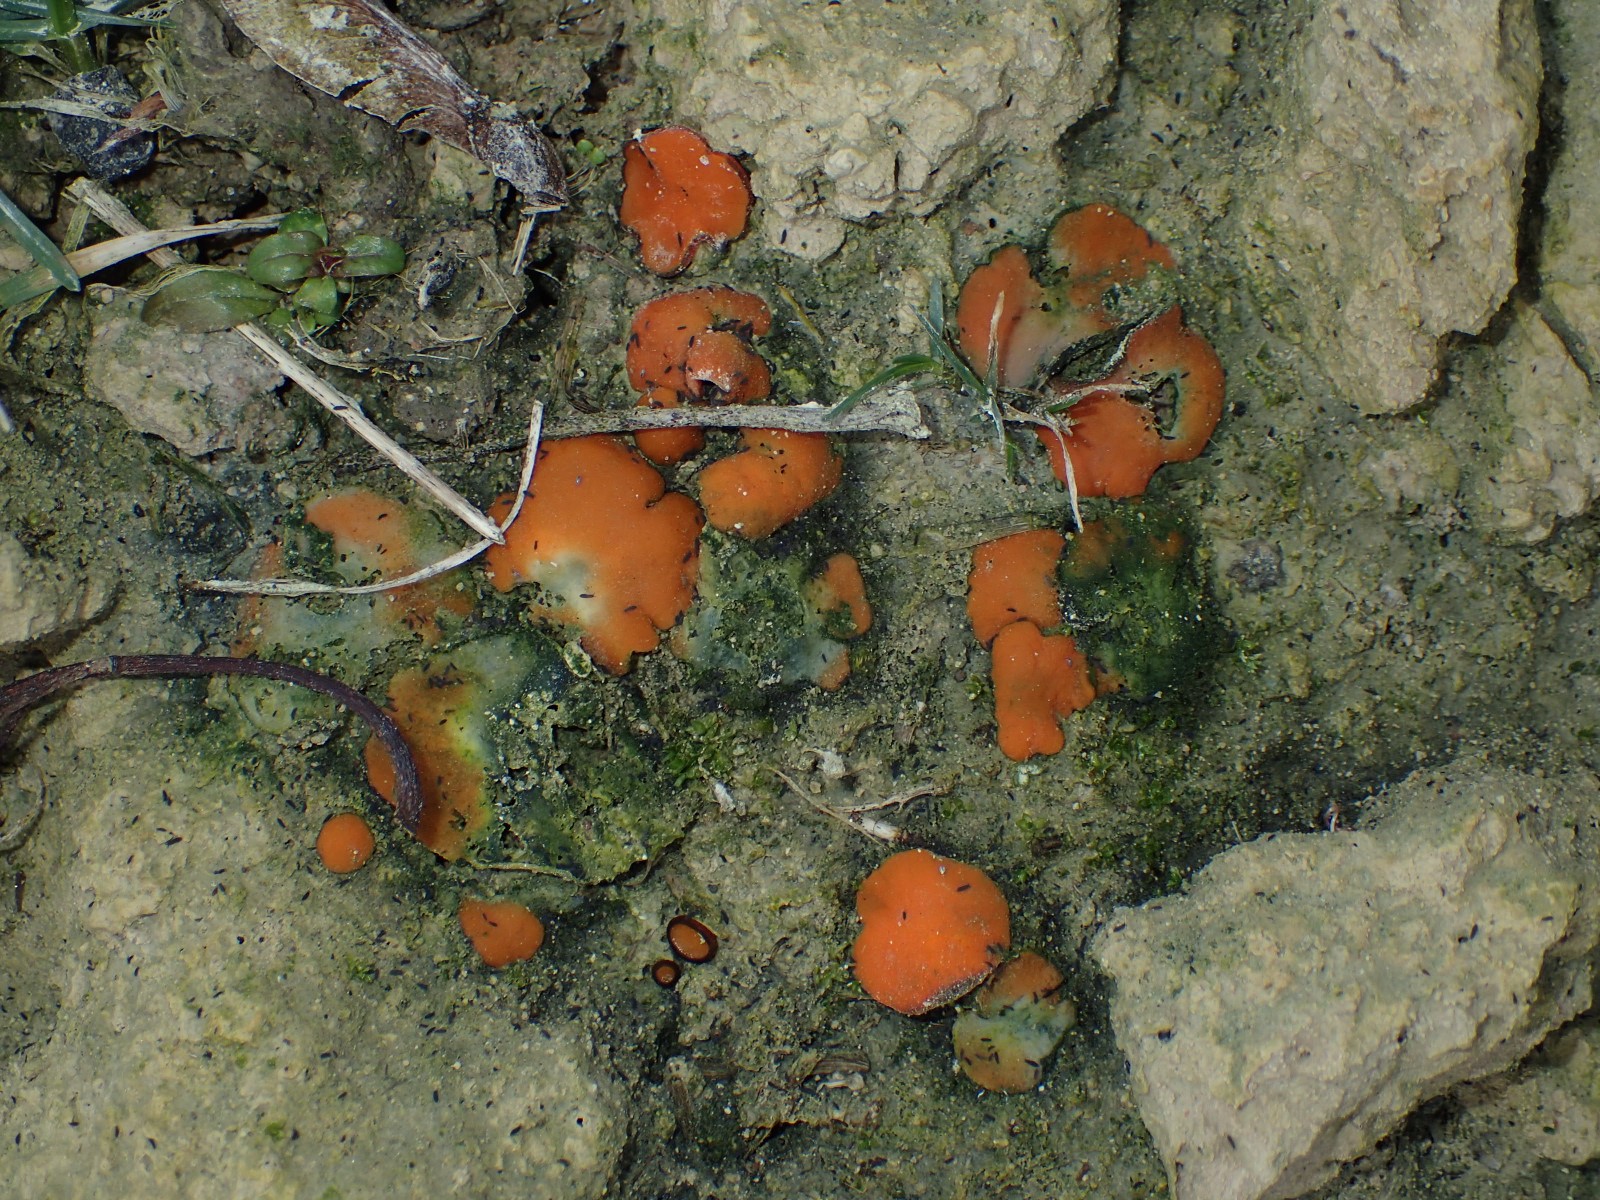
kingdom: Fungi
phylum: Ascomycota
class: Pezizomycetes
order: Pezizales
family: Pyronemataceae
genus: Melastiza
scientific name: Melastiza cornubiensis
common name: mørkrandet rødbæger
